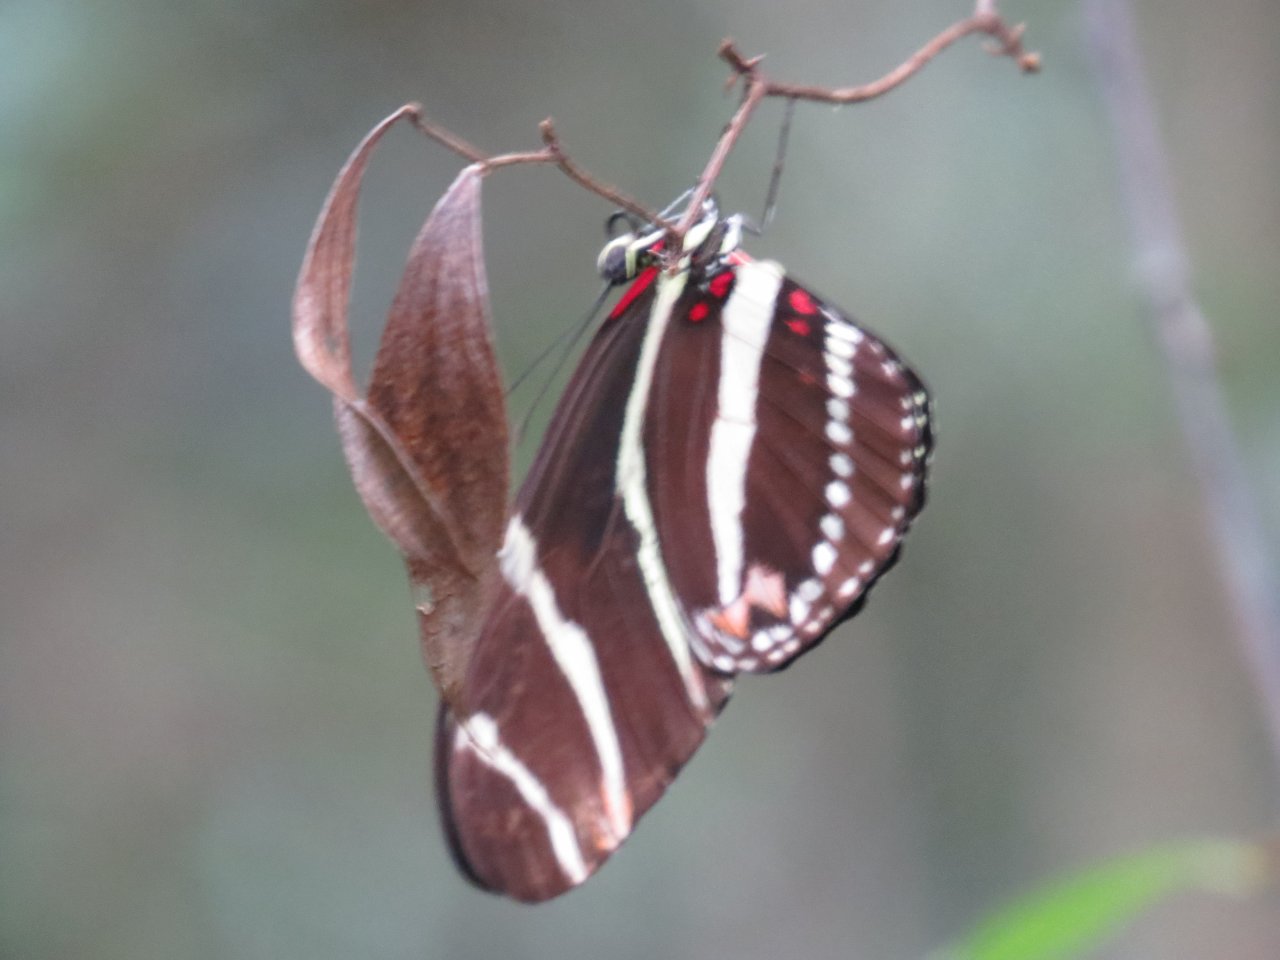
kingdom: Animalia
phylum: Arthropoda
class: Insecta
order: Lepidoptera
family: Nymphalidae
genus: Heliconius
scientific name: Heliconius charithonia
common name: Zebra Longwing
